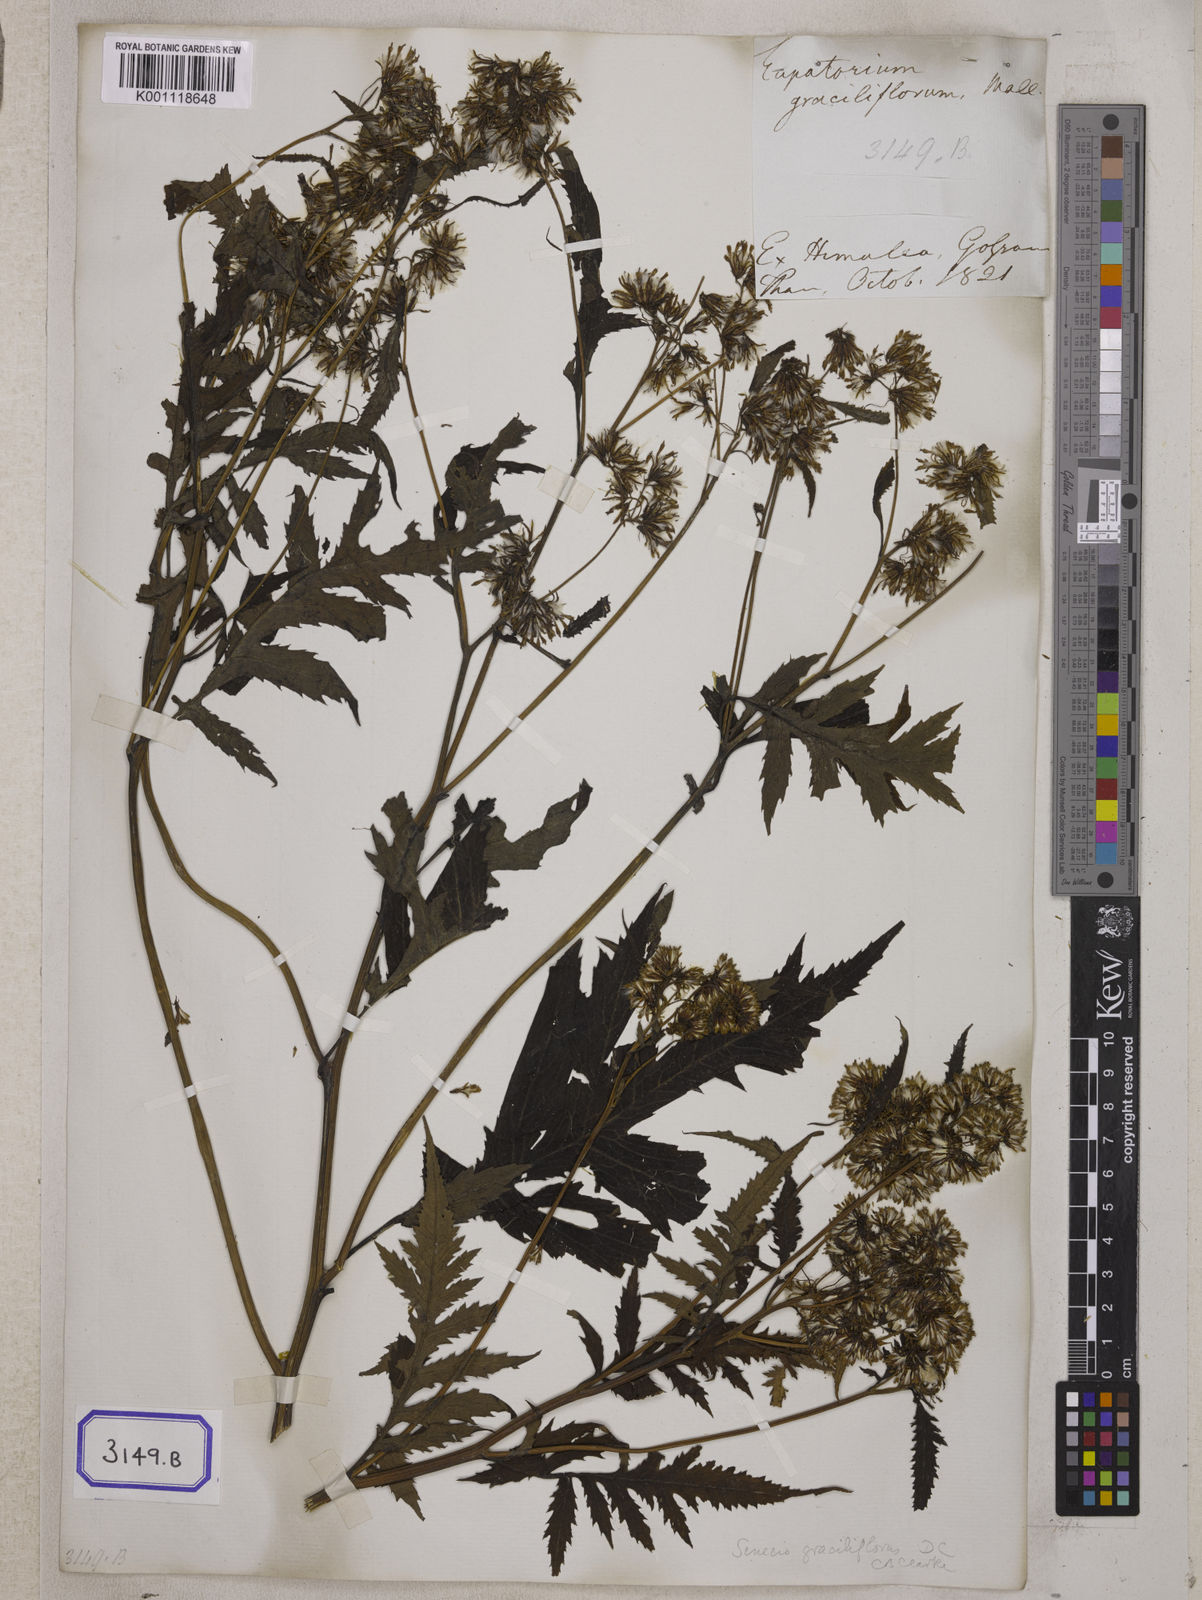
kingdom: Plantae
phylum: Tracheophyta
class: Magnoliopsida
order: Asterales
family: Asteraceae
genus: Senecio
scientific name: Senecio royleanus
